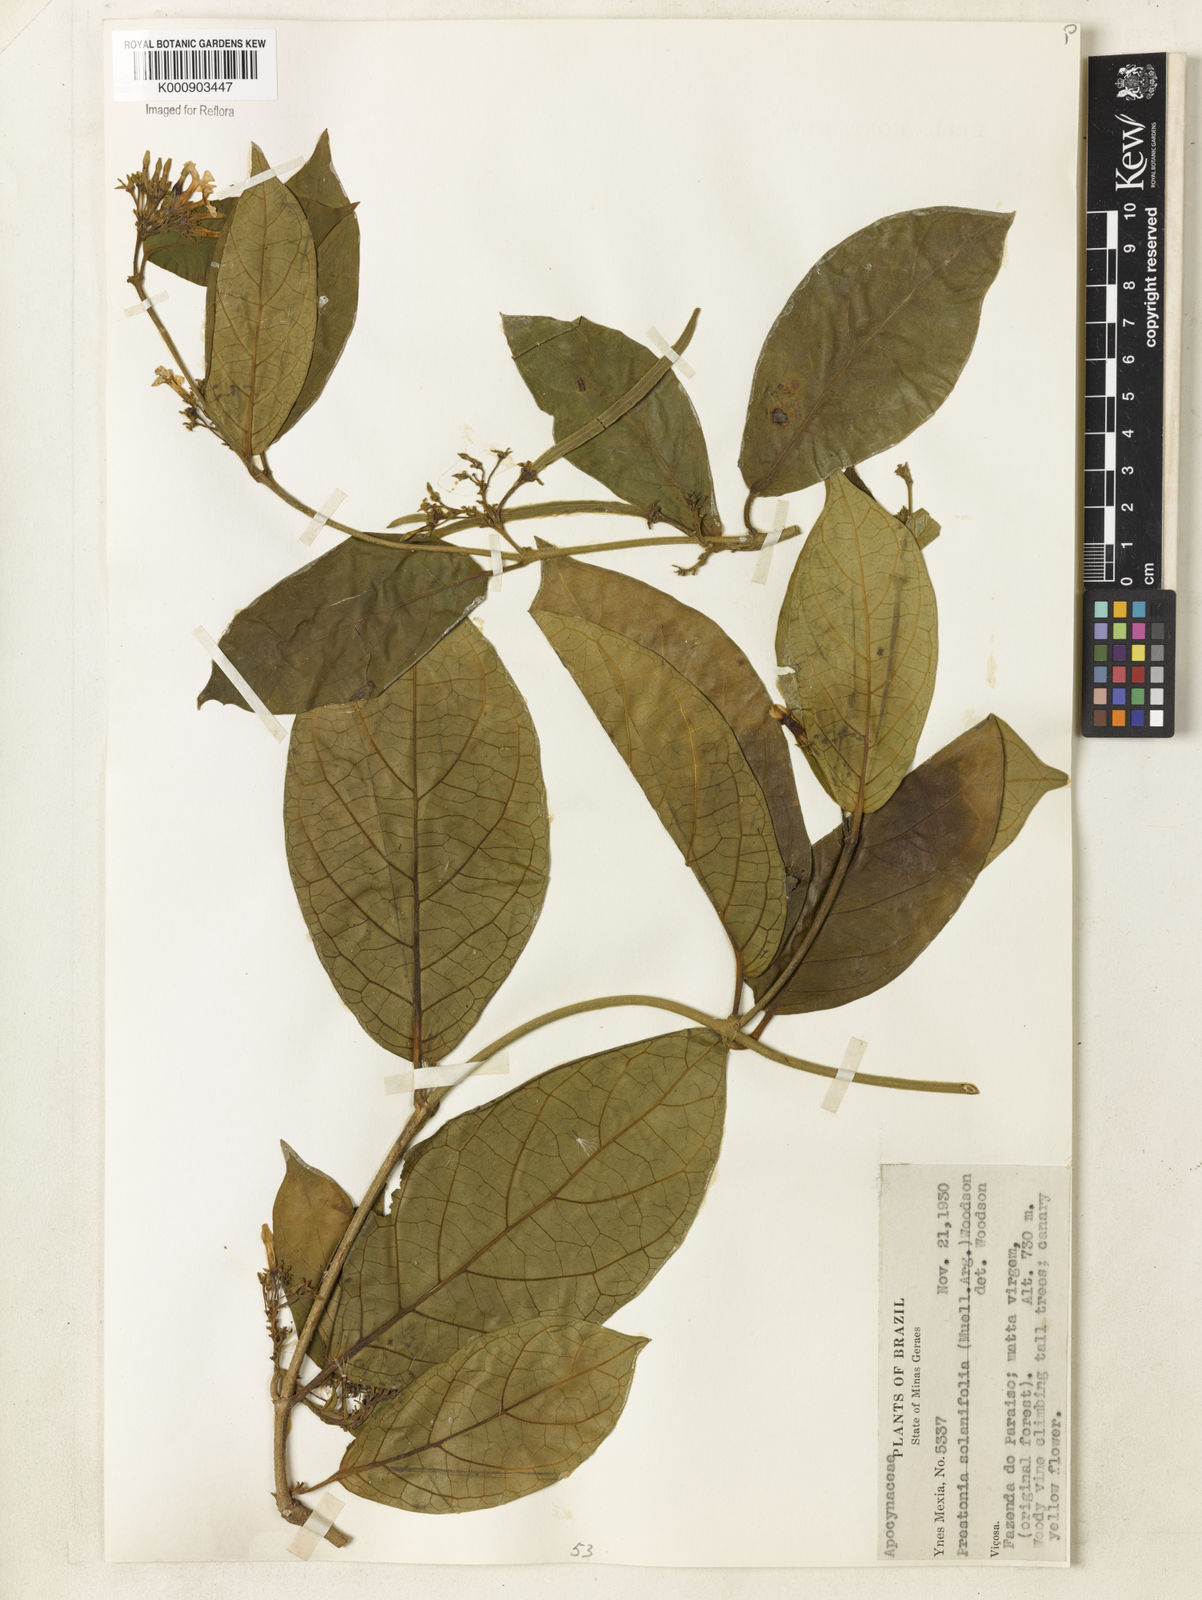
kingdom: Plantae
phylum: Tracheophyta
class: Magnoliopsida
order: Gentianales
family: Apocynaceae
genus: Prestonia
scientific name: Prestonia
